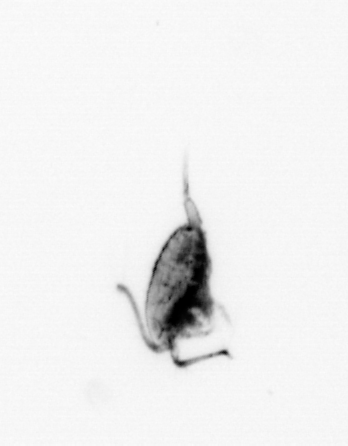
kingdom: Animalia
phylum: Arthropoda
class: Copepoda
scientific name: Copepoda
